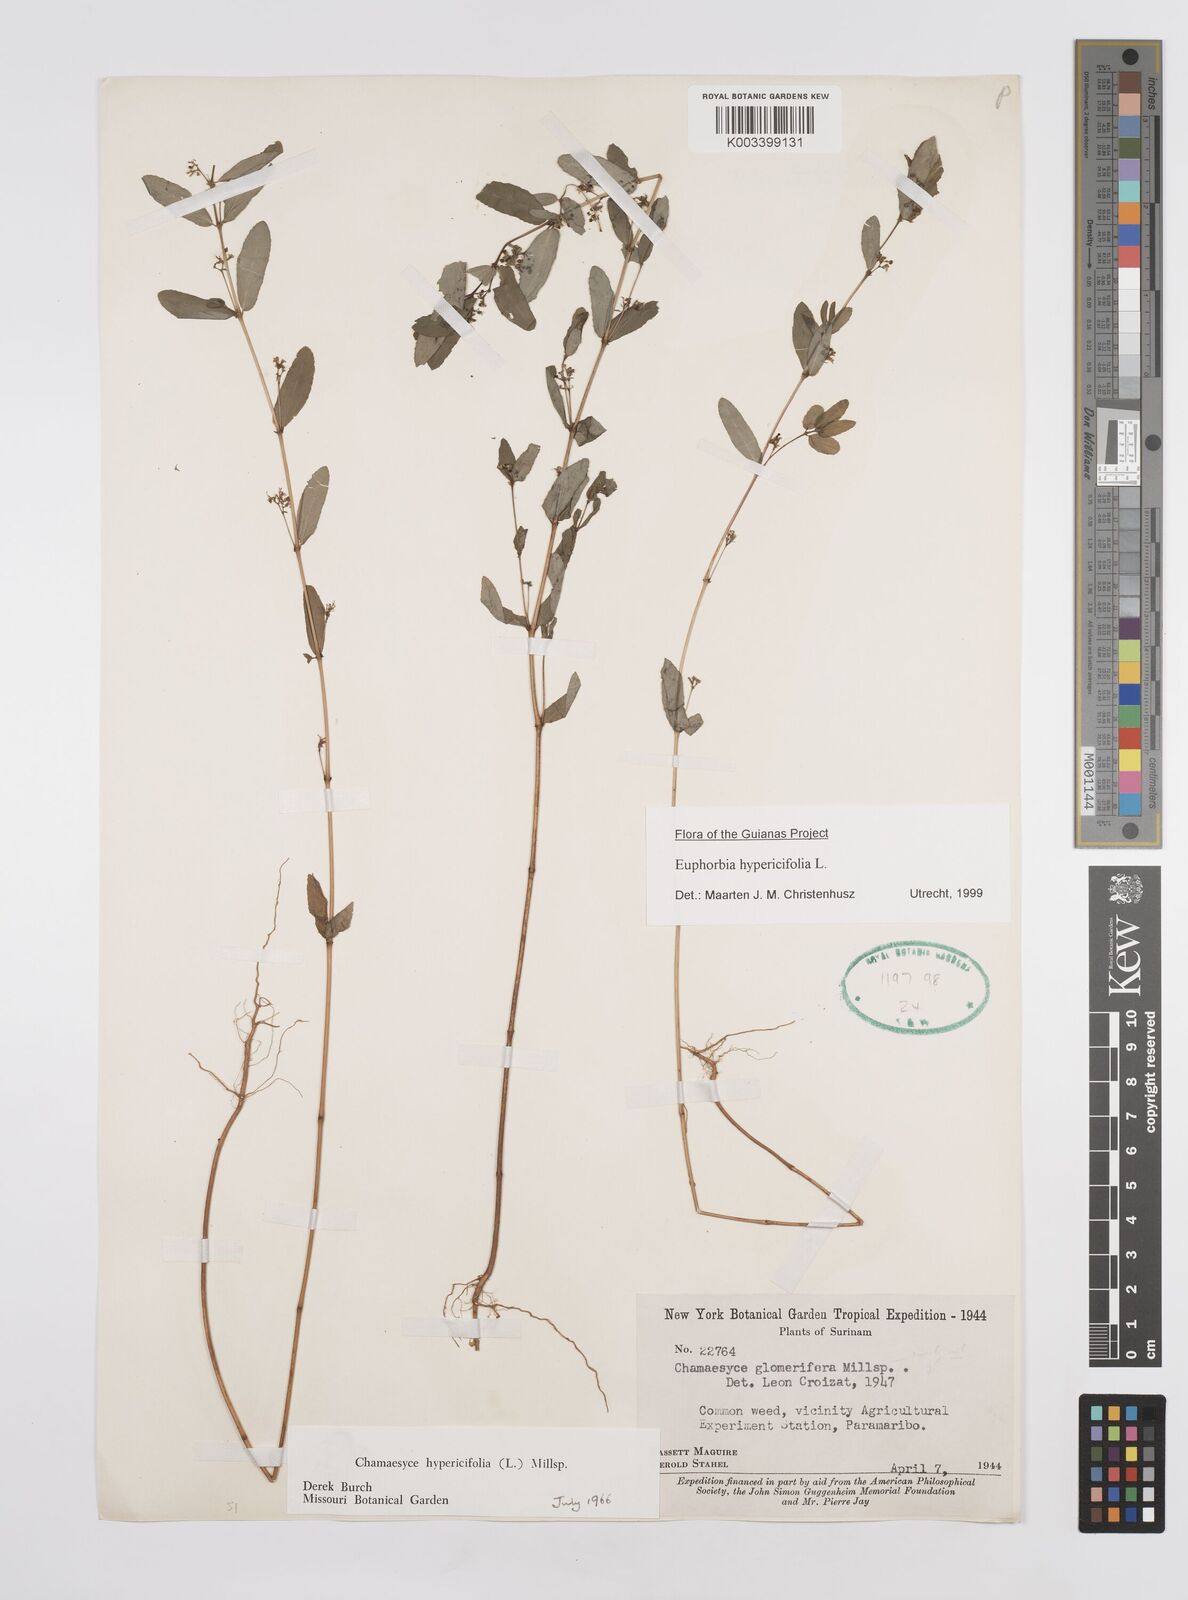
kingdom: Plantae
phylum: Tracheophyta
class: Magnoliopsida
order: Malpighiales
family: Euphorbiaceae
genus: Euphorbia
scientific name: Euphorbia hypericifolia
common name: Graceful sandmat
